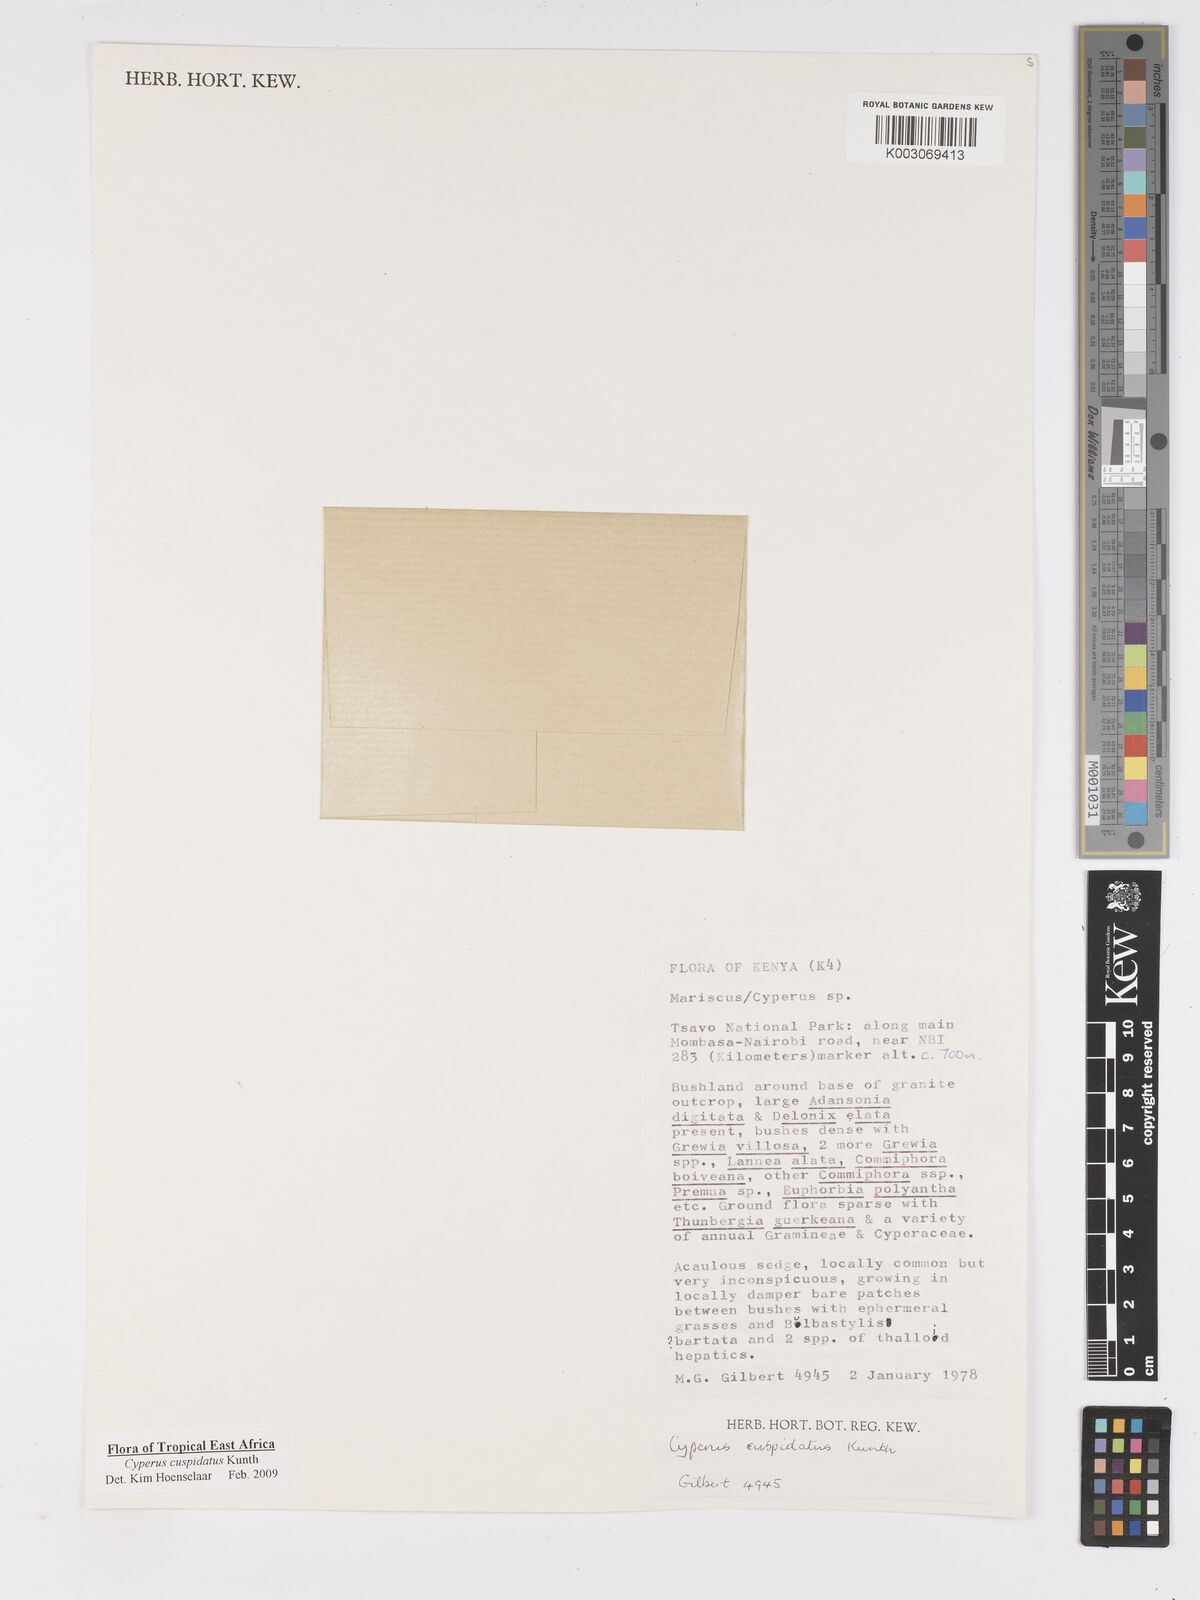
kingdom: Plantae
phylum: Tracheophyta
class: Liliopsida
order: Poales
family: Cyperaceae
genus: Cyperus
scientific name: Cyperus cuspidatus
